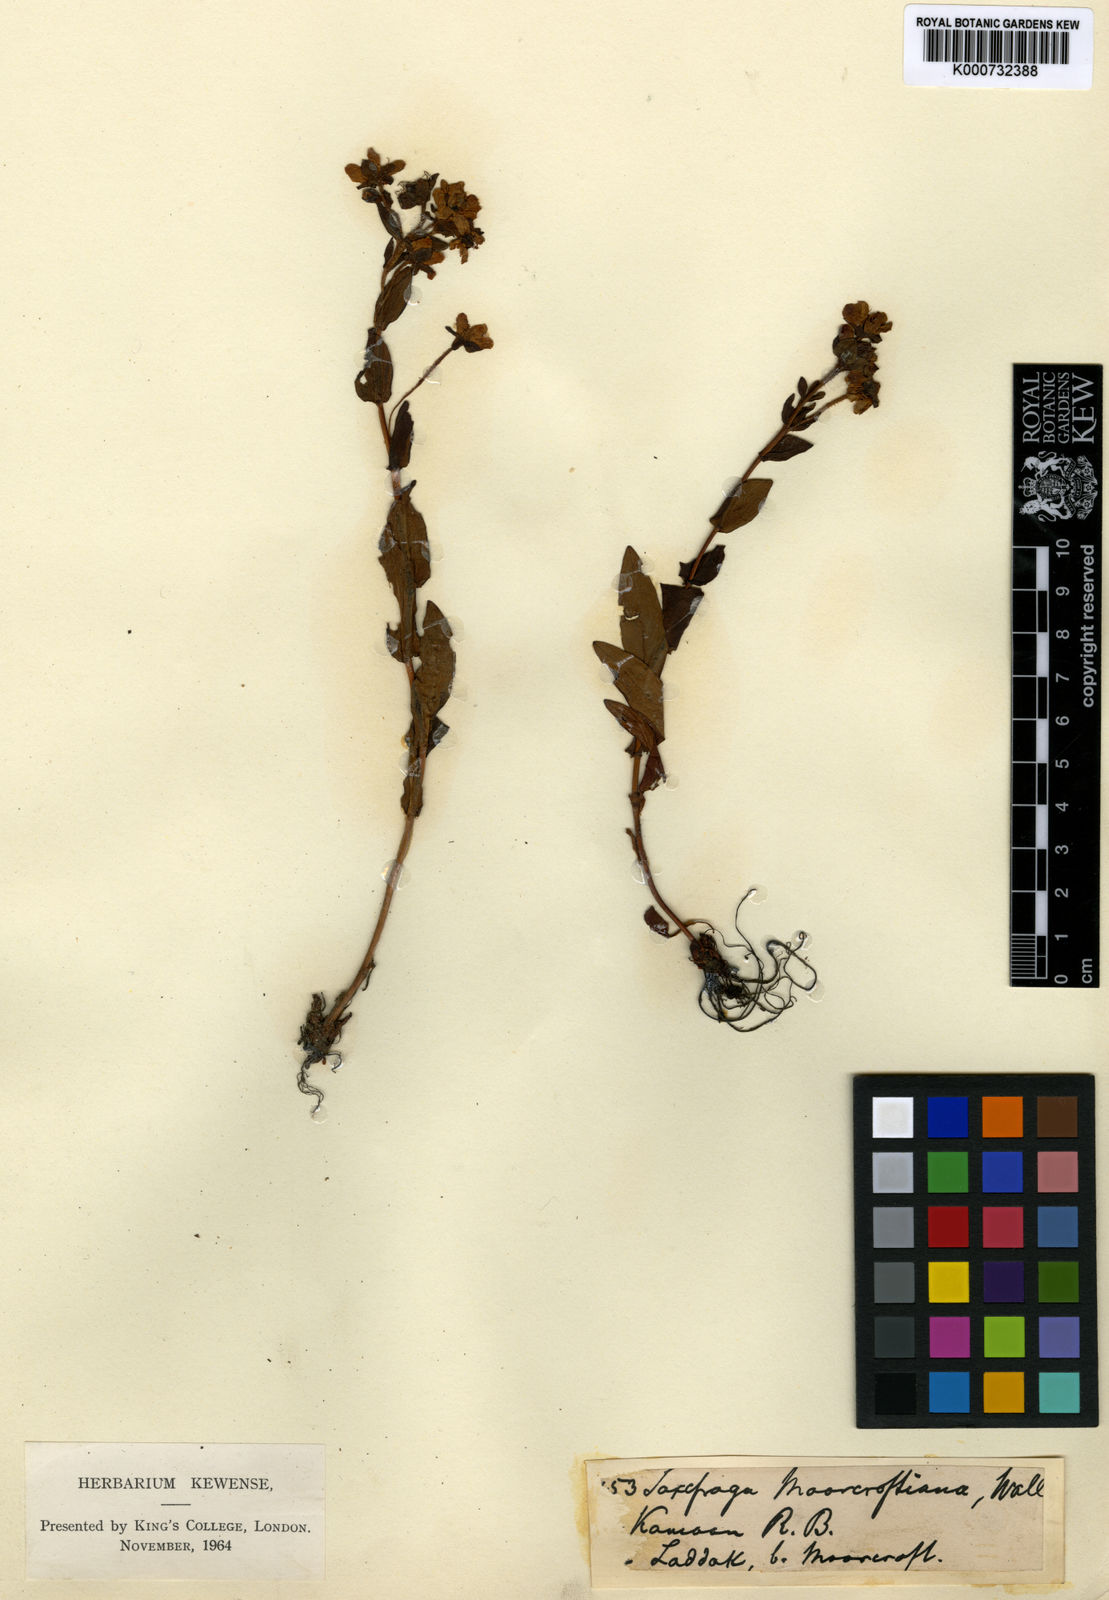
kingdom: Plantae
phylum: Tracheophyta
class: Magnoliopsida
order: Saxifragales
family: Saxifragaceae
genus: Saxifraga
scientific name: Saxifraga moorcroftiana
